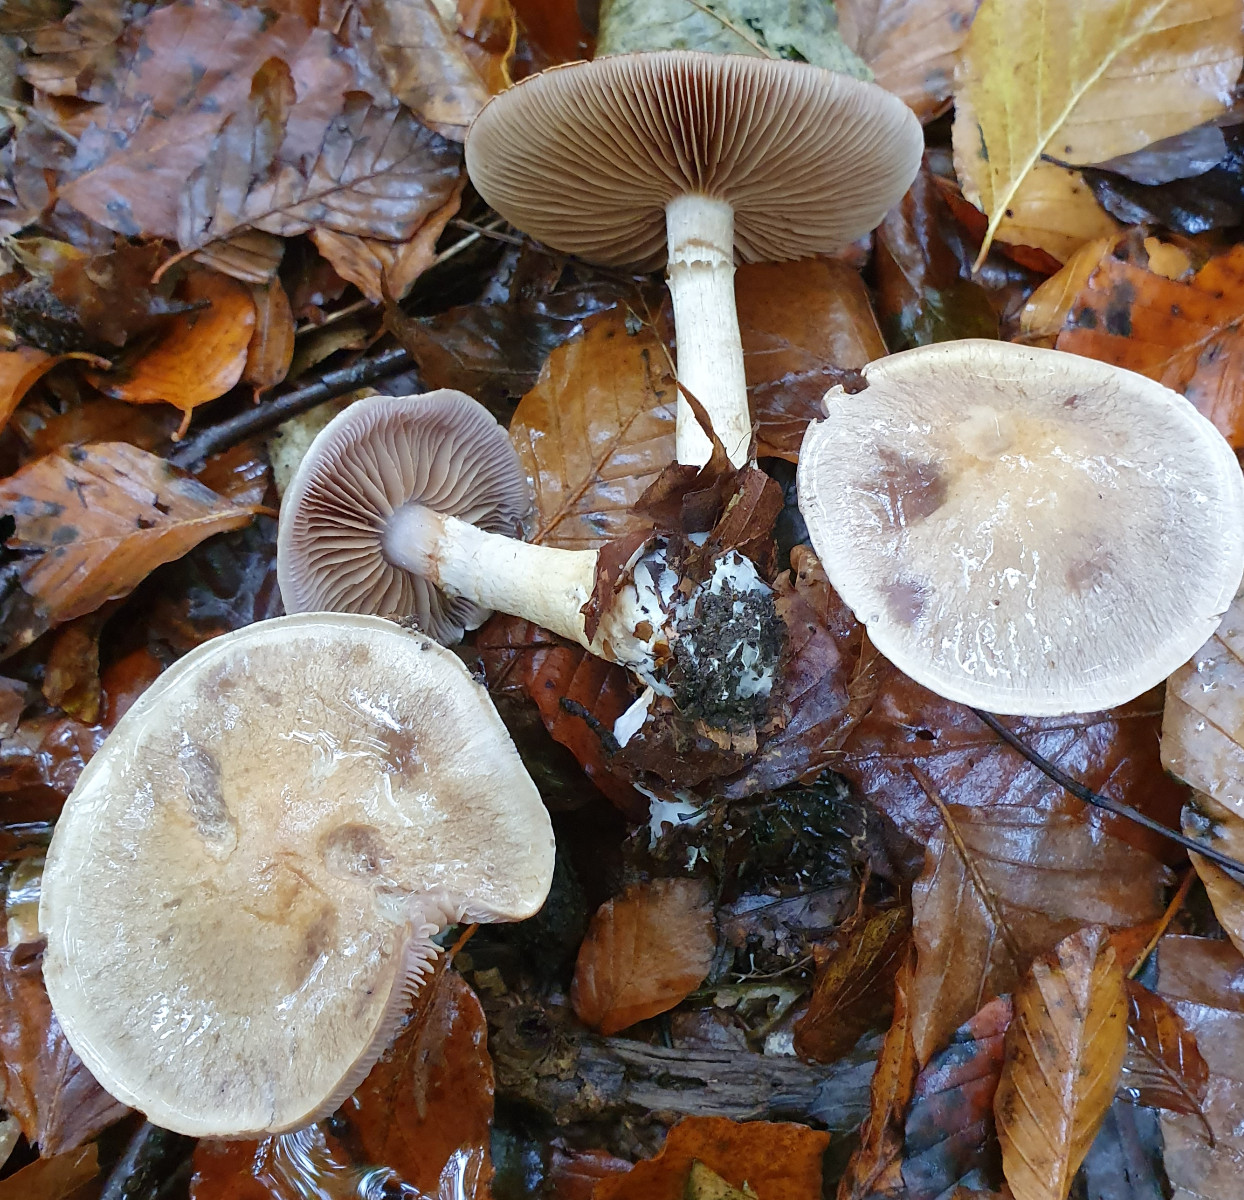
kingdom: Fungi
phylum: Basidiomycota
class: Agaricomycetes
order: Agaricales
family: Cortinariaceae
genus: Cortinarius
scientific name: Cortinarius
